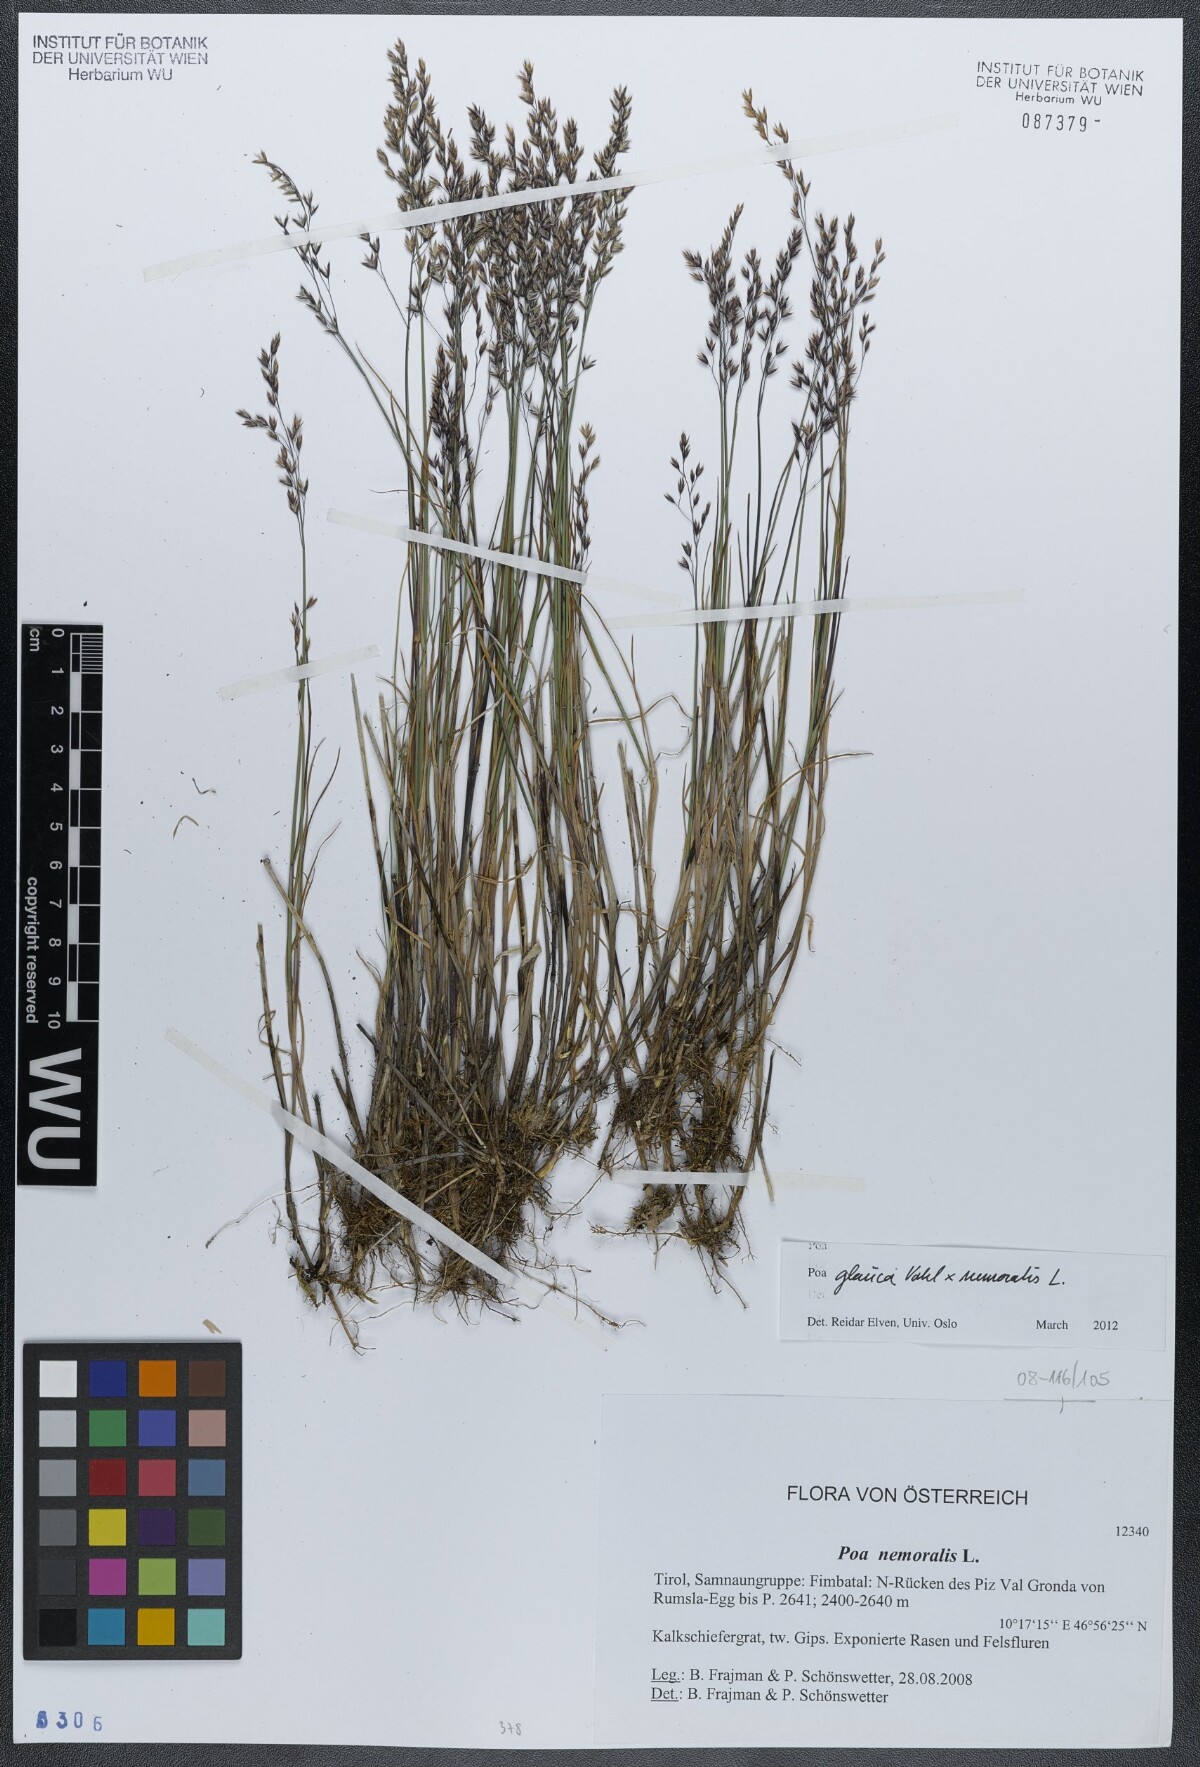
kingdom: Plantae
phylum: Tracheophyta
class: Liliopsida
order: Poales
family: Poaceae
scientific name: Poaceae
